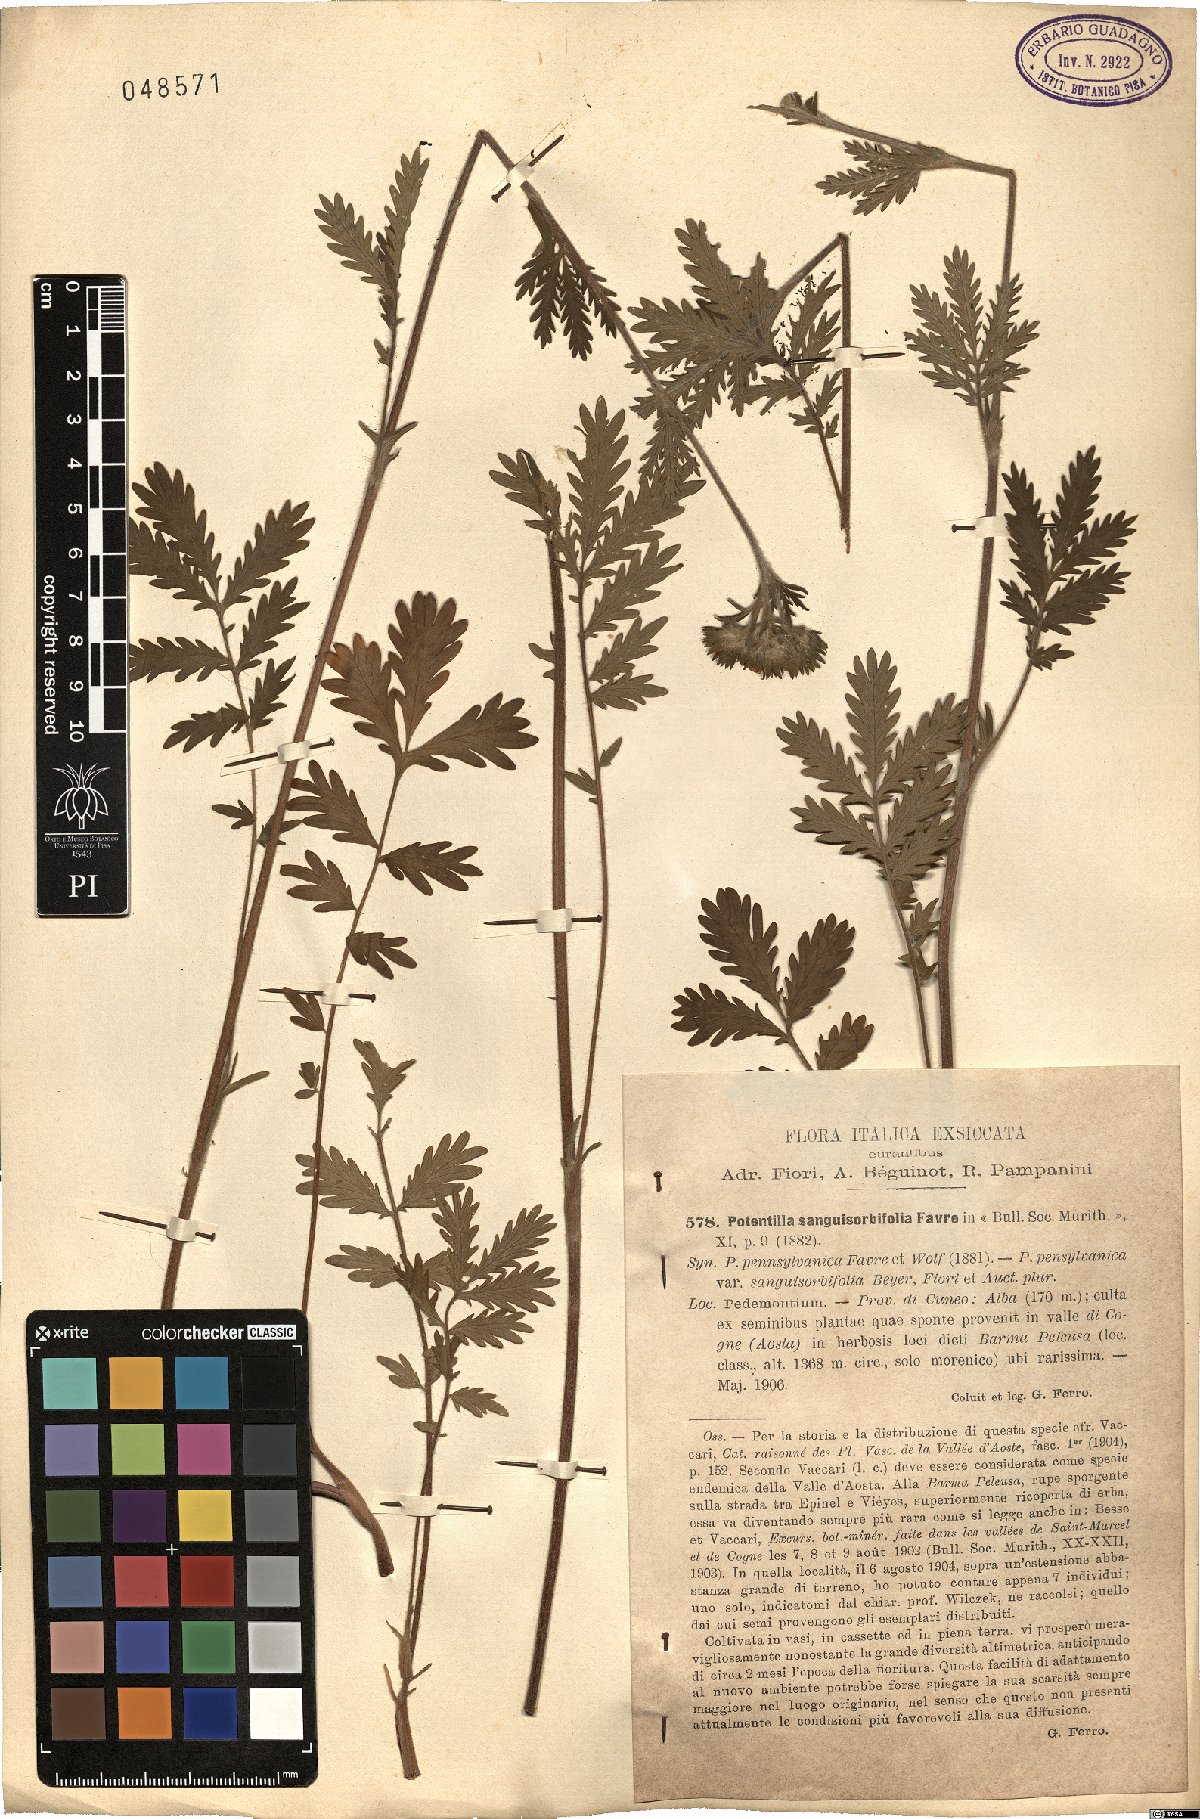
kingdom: Plantae
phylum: Tracheophyta
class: Magnoliopsida
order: Rosales
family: Rosaceae
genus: Potentilla
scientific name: Potentilla pensylvanica
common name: Pennsylvania cinquefoil
